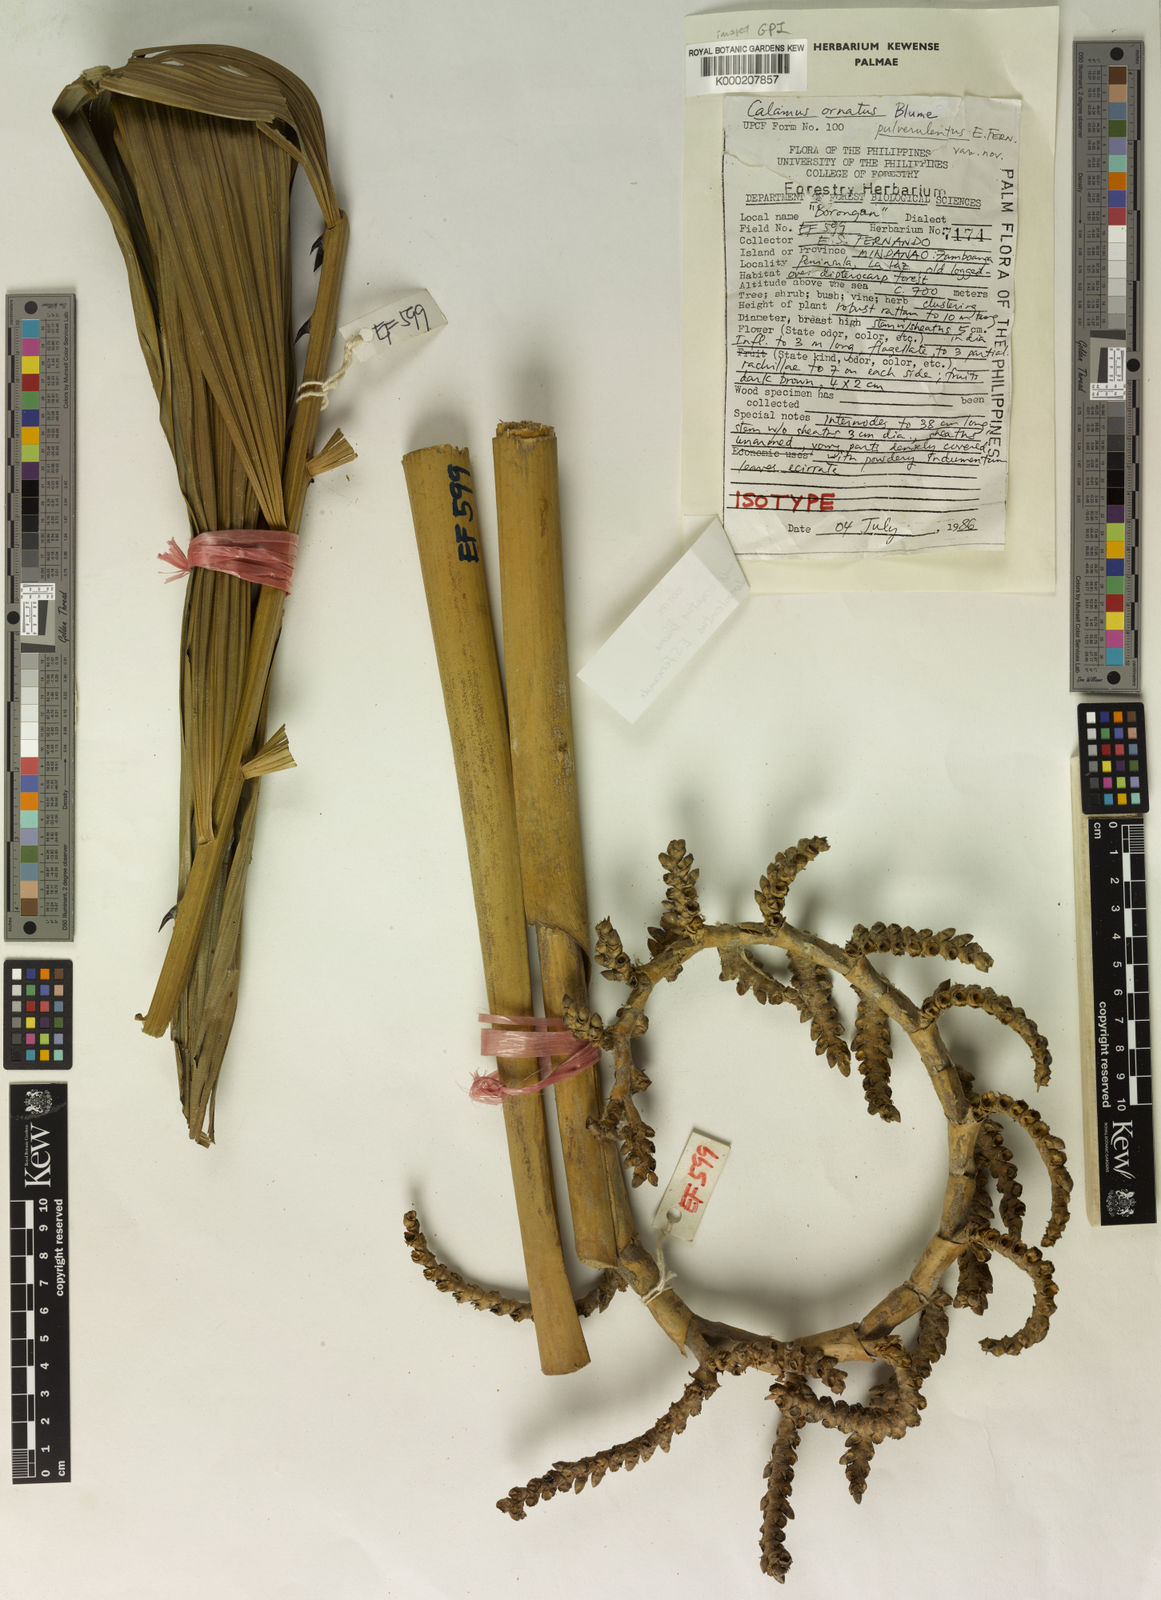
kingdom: Plantae
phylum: Tracheophyta
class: Liliopsida
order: Arecales
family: Arecaceae
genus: Calamus
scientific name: Calamus ornatus
